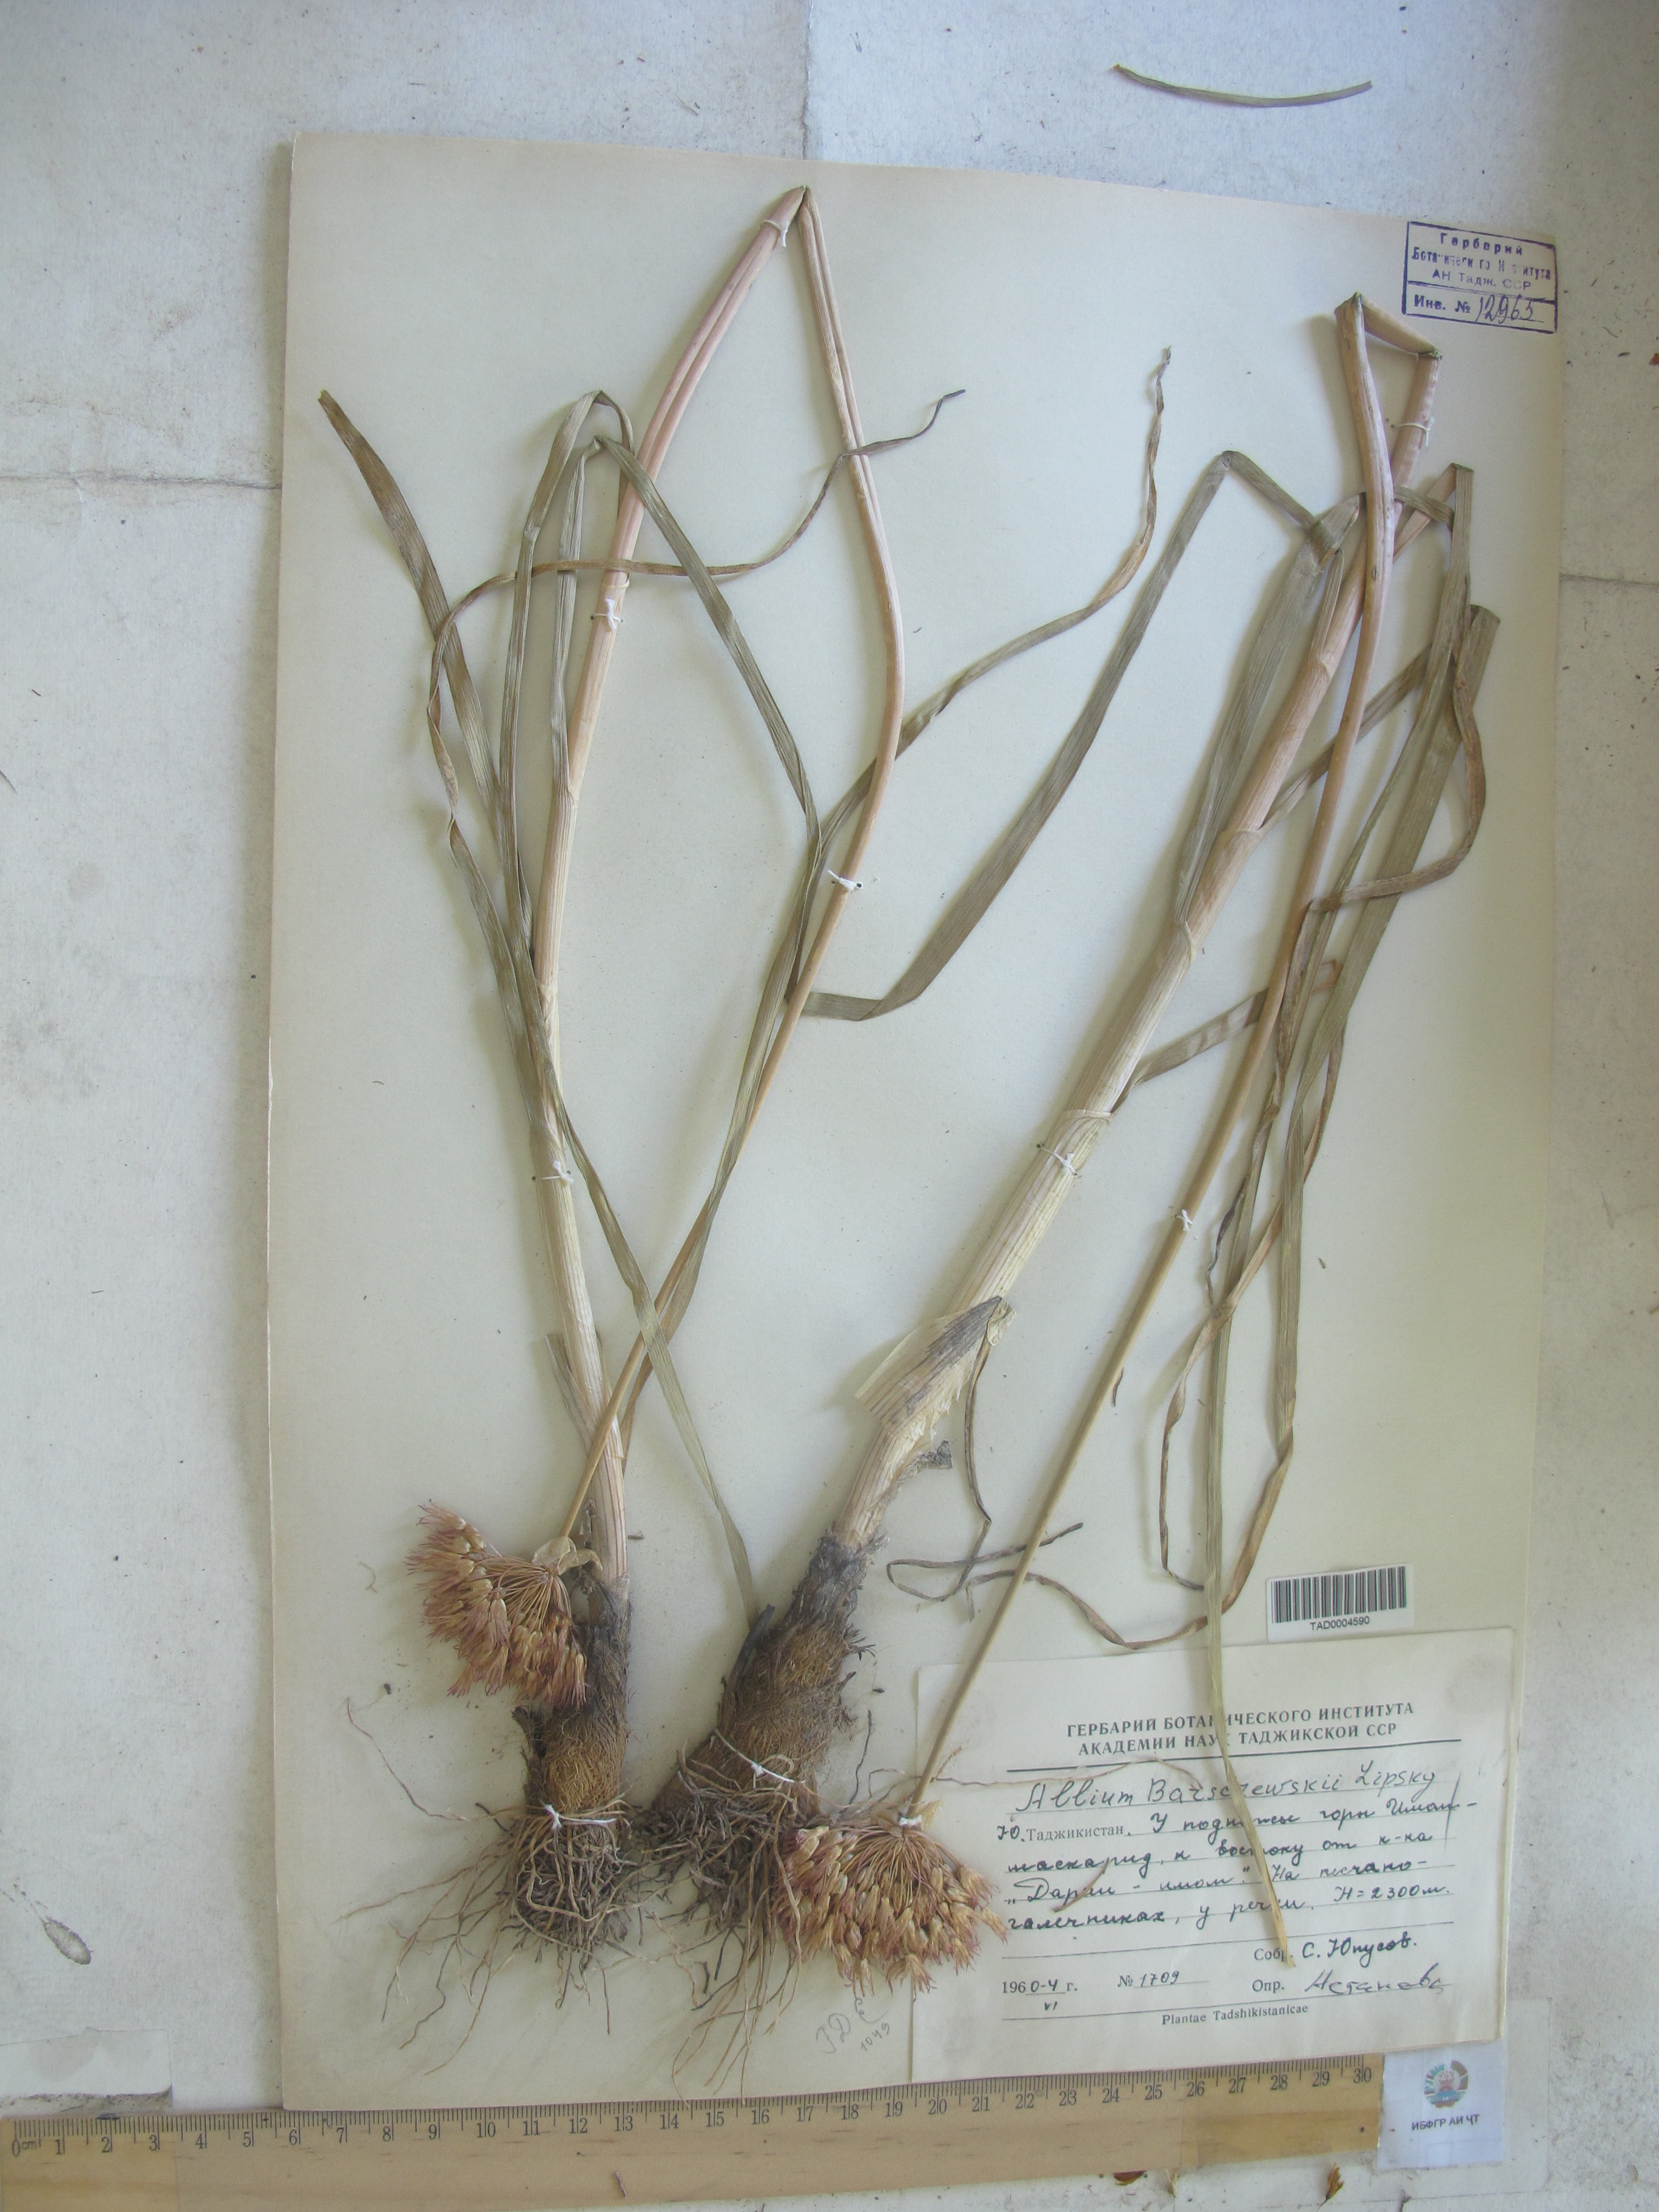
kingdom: Plantae
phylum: Tracheophyta
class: Liliopsida
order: Asparagales
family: Amaryllidaceae
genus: Allium
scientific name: Allium barsczewskii
